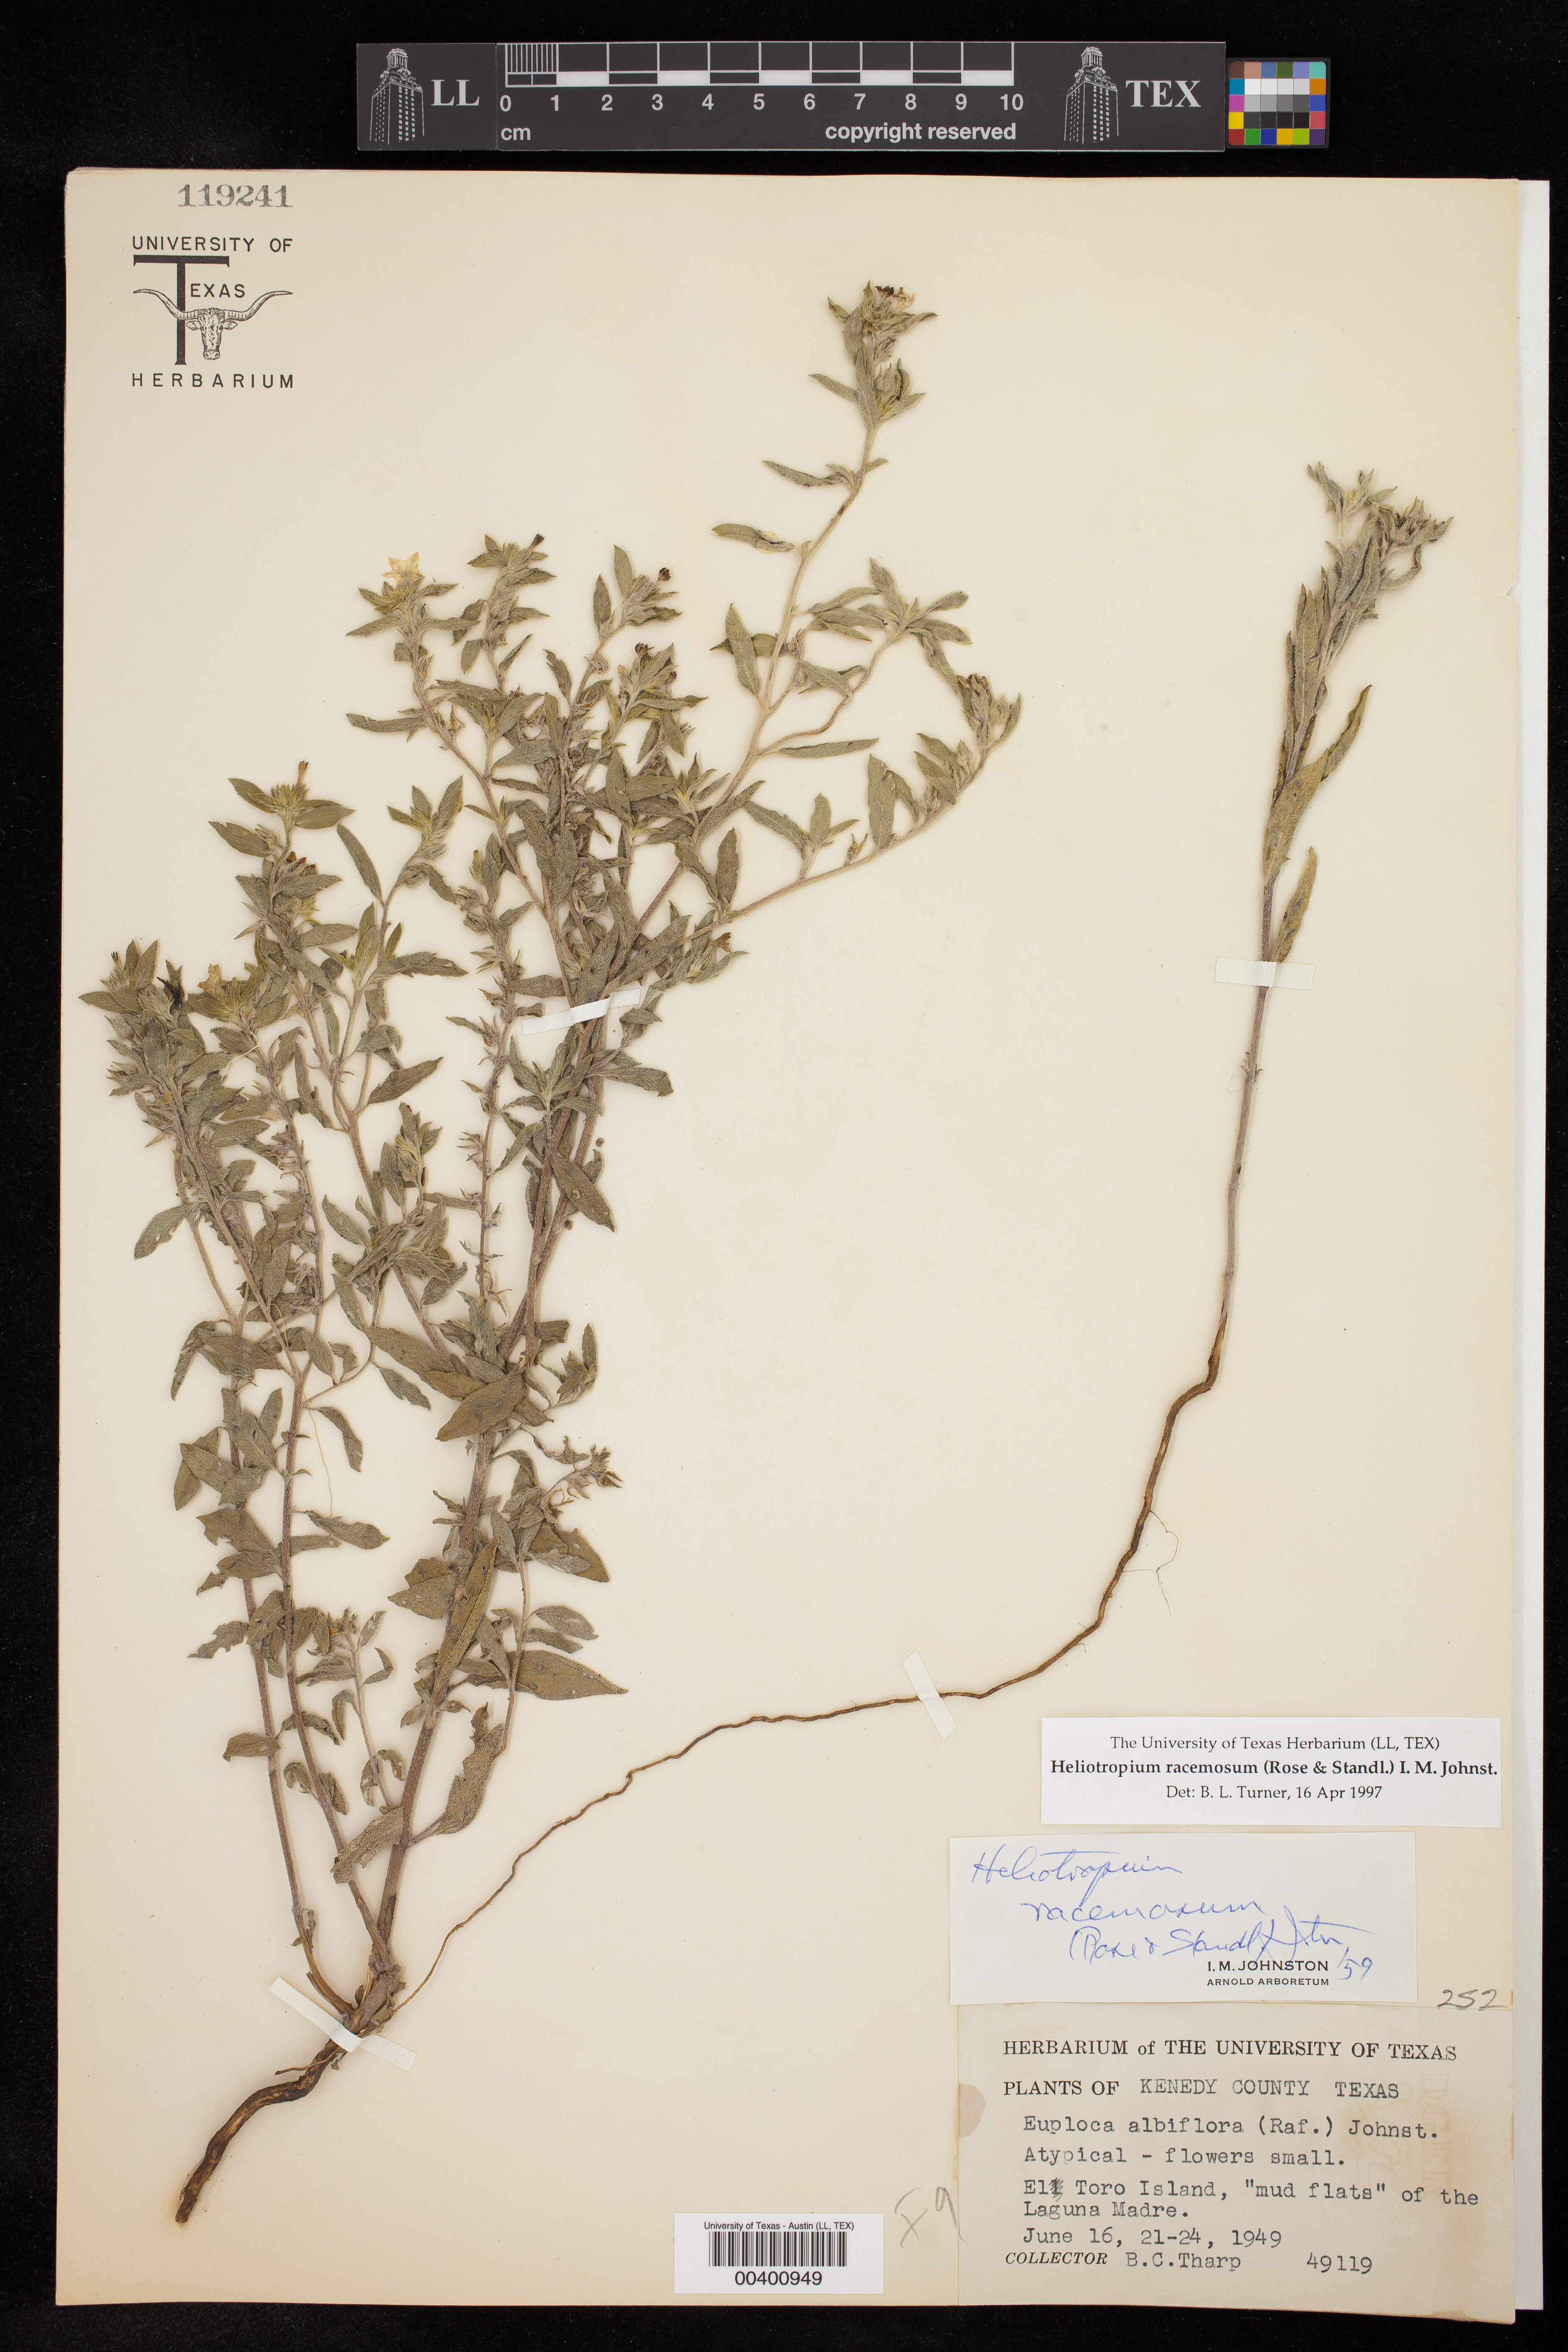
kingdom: Plantae
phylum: Tracheophyta
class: Magnoliopsida
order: Boraginales
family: Heliotropiaceae
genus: Heliotropium
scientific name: Heliotropium racemosum
